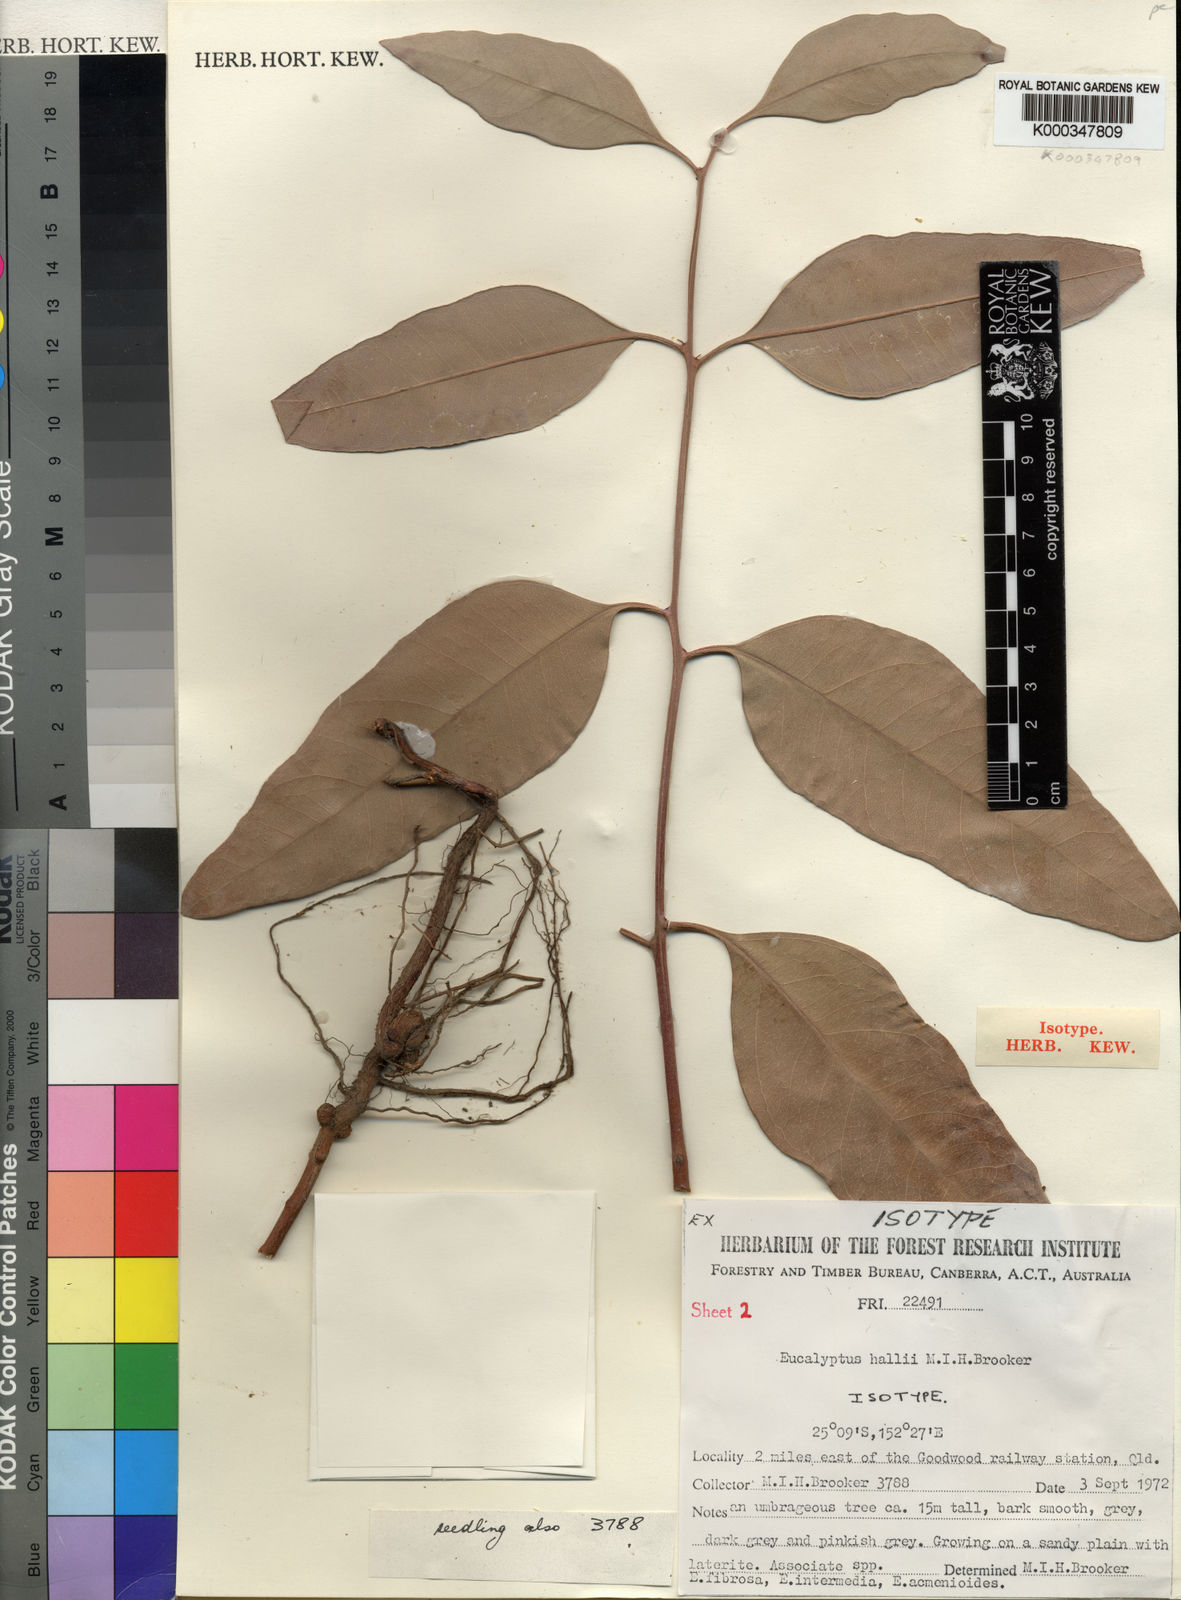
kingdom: Plantae
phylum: Tracheophyta
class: Magnoliopsida
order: Myrtales
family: Myrtaceae
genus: Eucalyptus
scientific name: Eucalyptus hallii
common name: Goodwood gum
